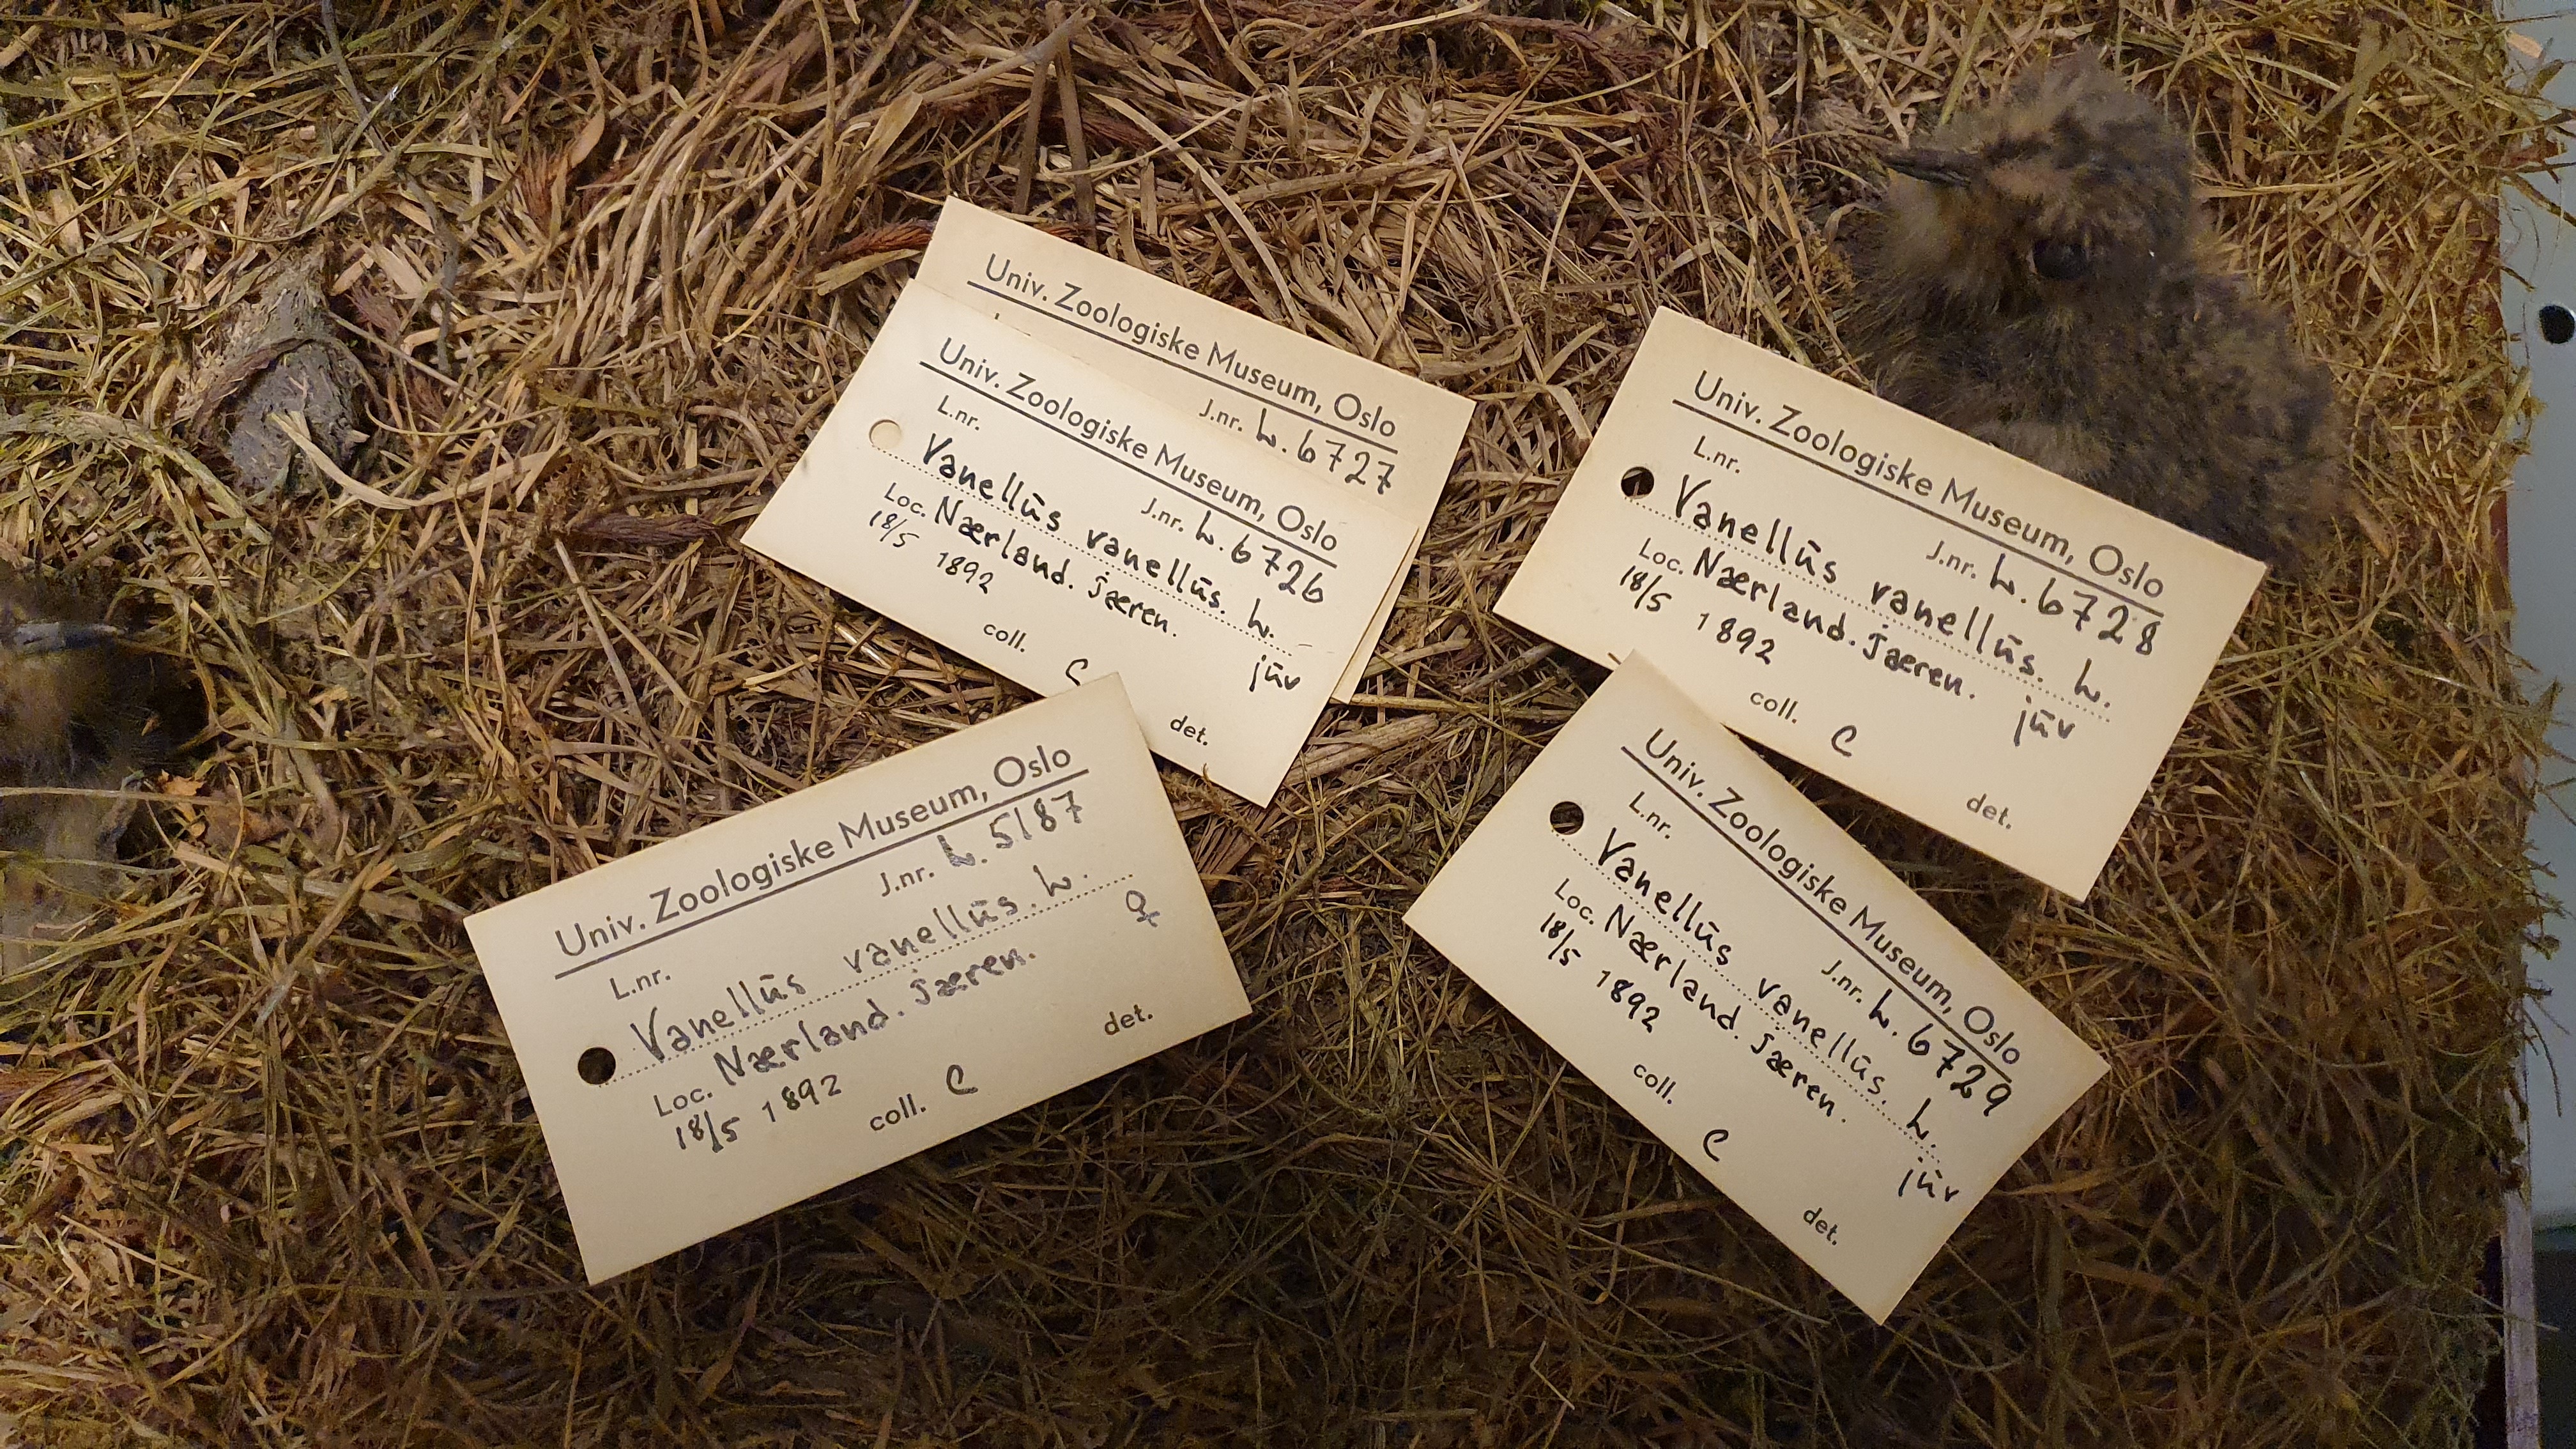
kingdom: Animalia
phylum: Chordata
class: Aves
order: Charadriiformes
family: Charadriidae
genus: Vanellus
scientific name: Vanellus vanellus
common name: Northern lapwing
